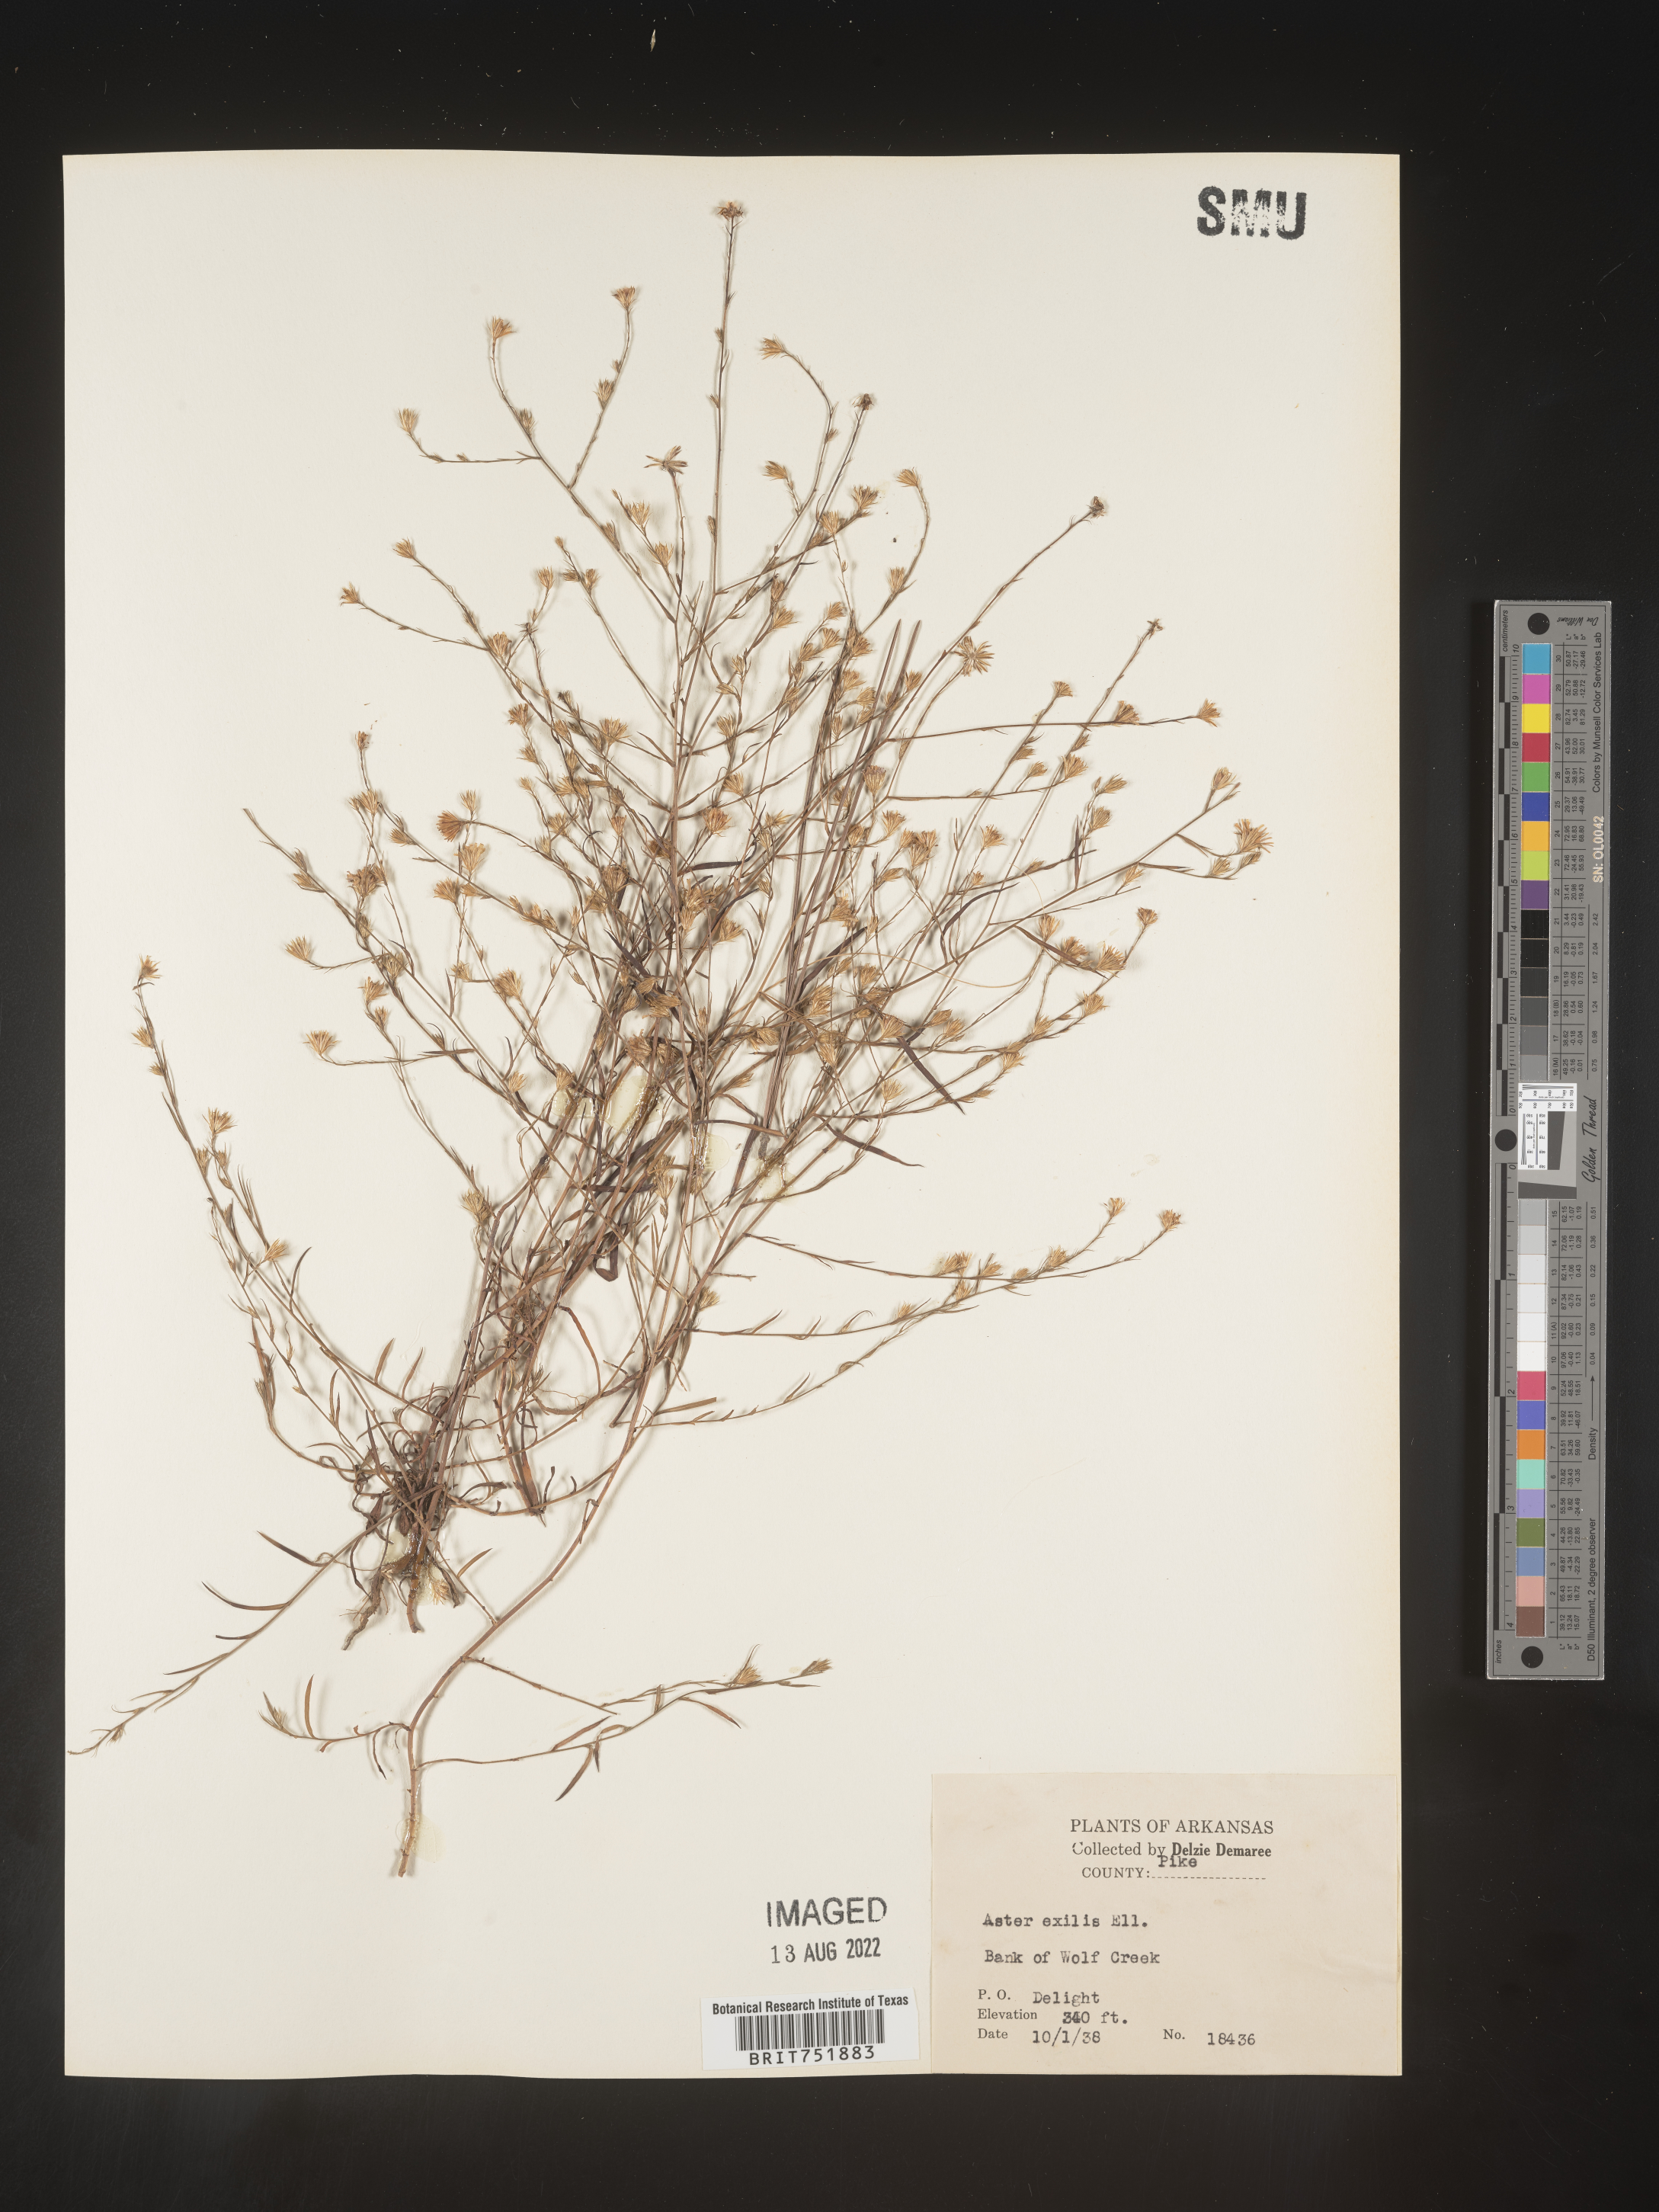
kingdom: Plantae
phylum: Tracheophyta
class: Magnoliopsida
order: Asterales
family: Asteraceae
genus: Symphyotrichum
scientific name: Symphyotrichum divaricatum
